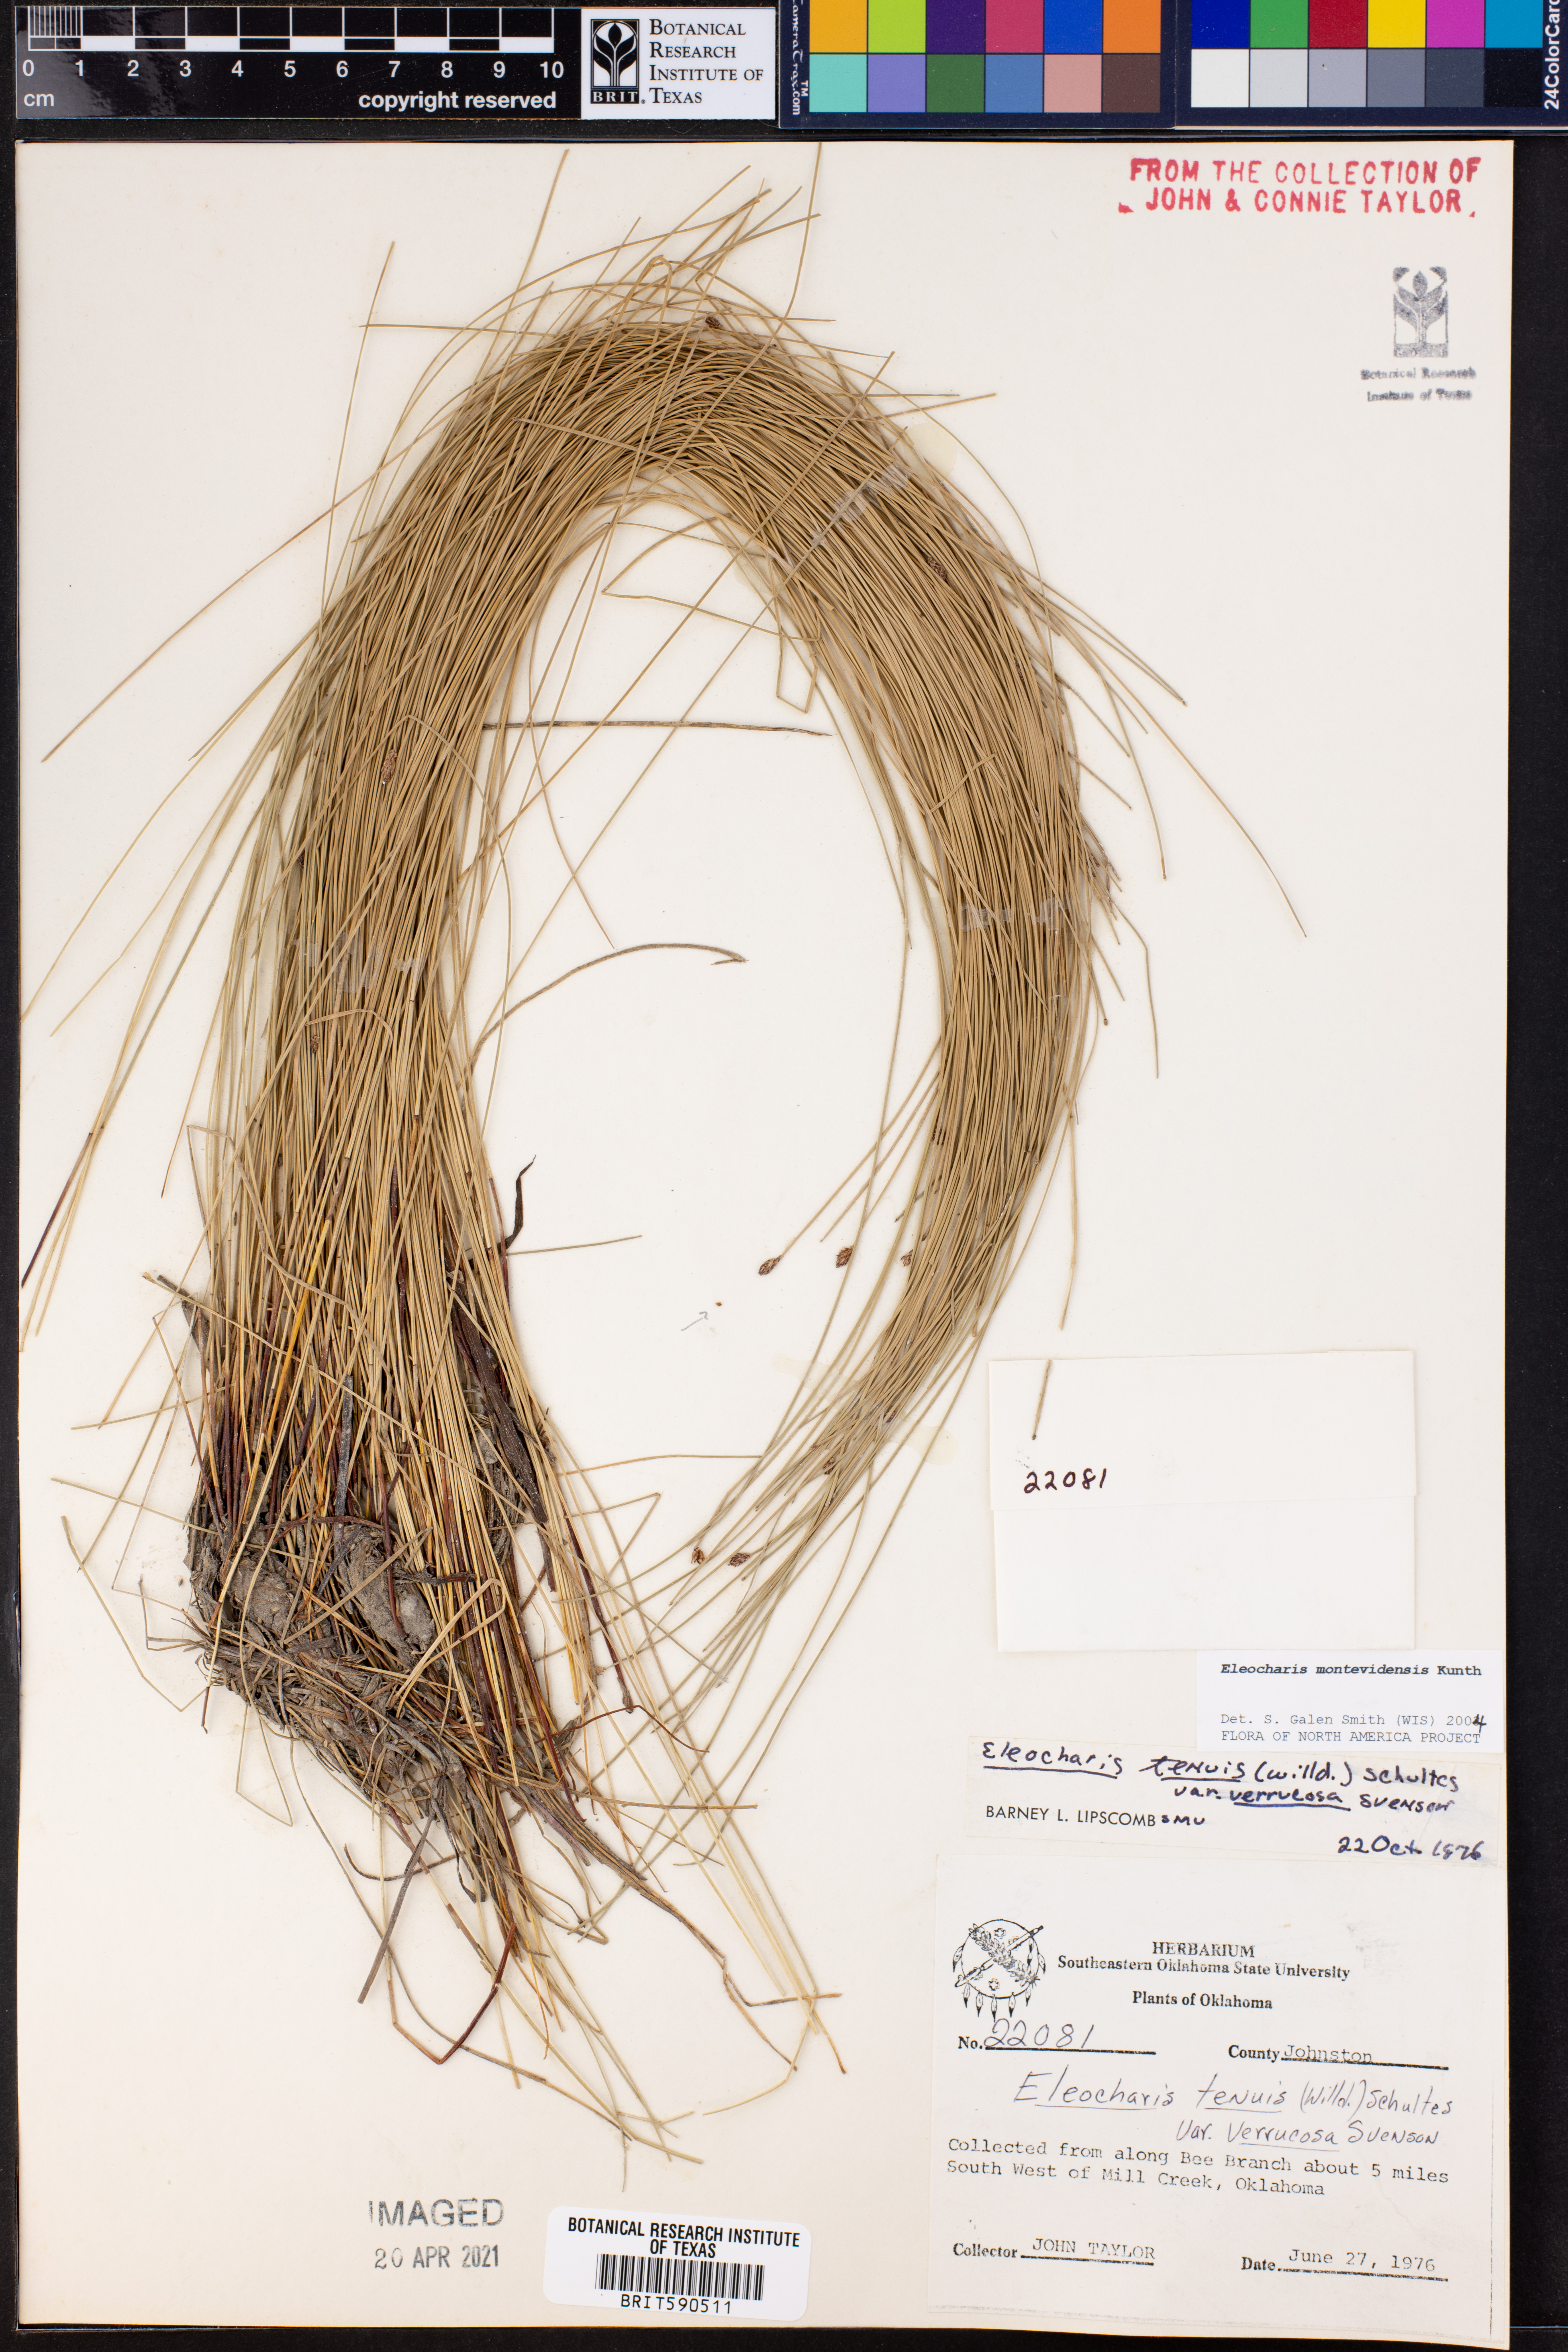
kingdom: Plantae
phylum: Tracheophyta
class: Liliopsida
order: Poales
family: Cyperaceae
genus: Eleocharis
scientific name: Eleocharis montevidensis
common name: Sand spike-rush
